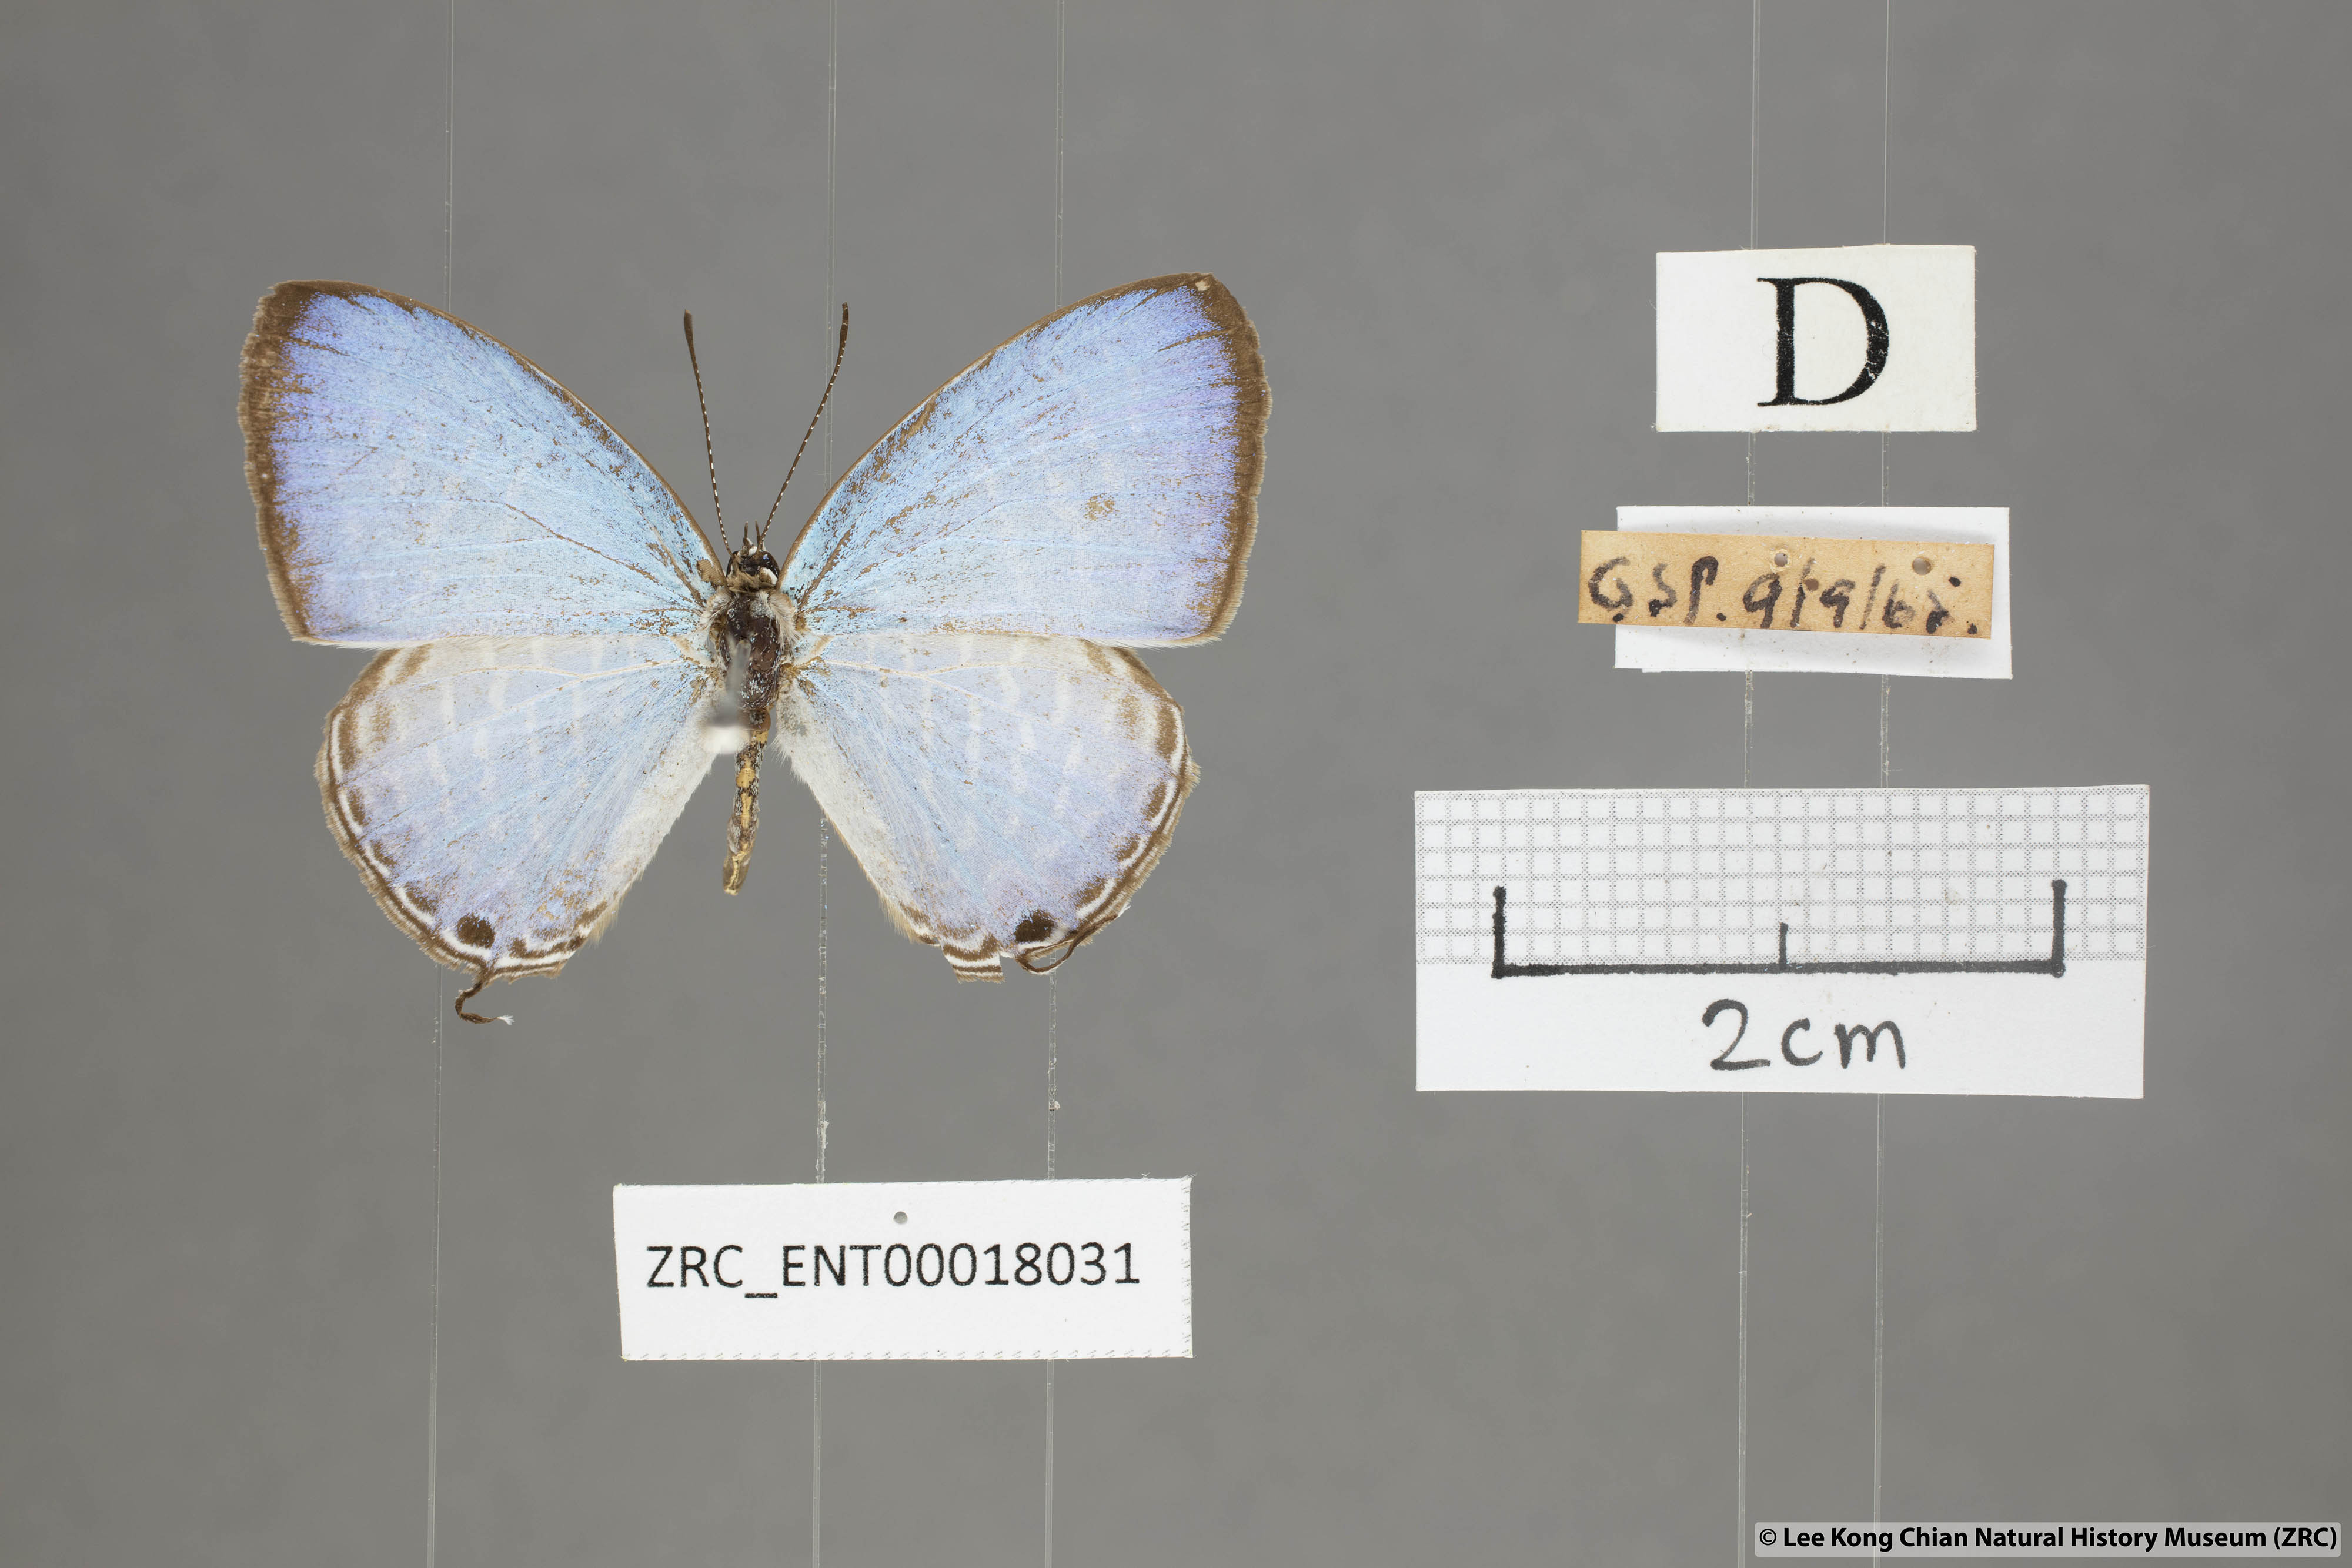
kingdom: Animalia
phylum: Arthropoda
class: Insecta
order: Lepidoptera
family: Lycaenidae
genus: Jamides
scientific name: Jamides alecto
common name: Metallic cerulean
